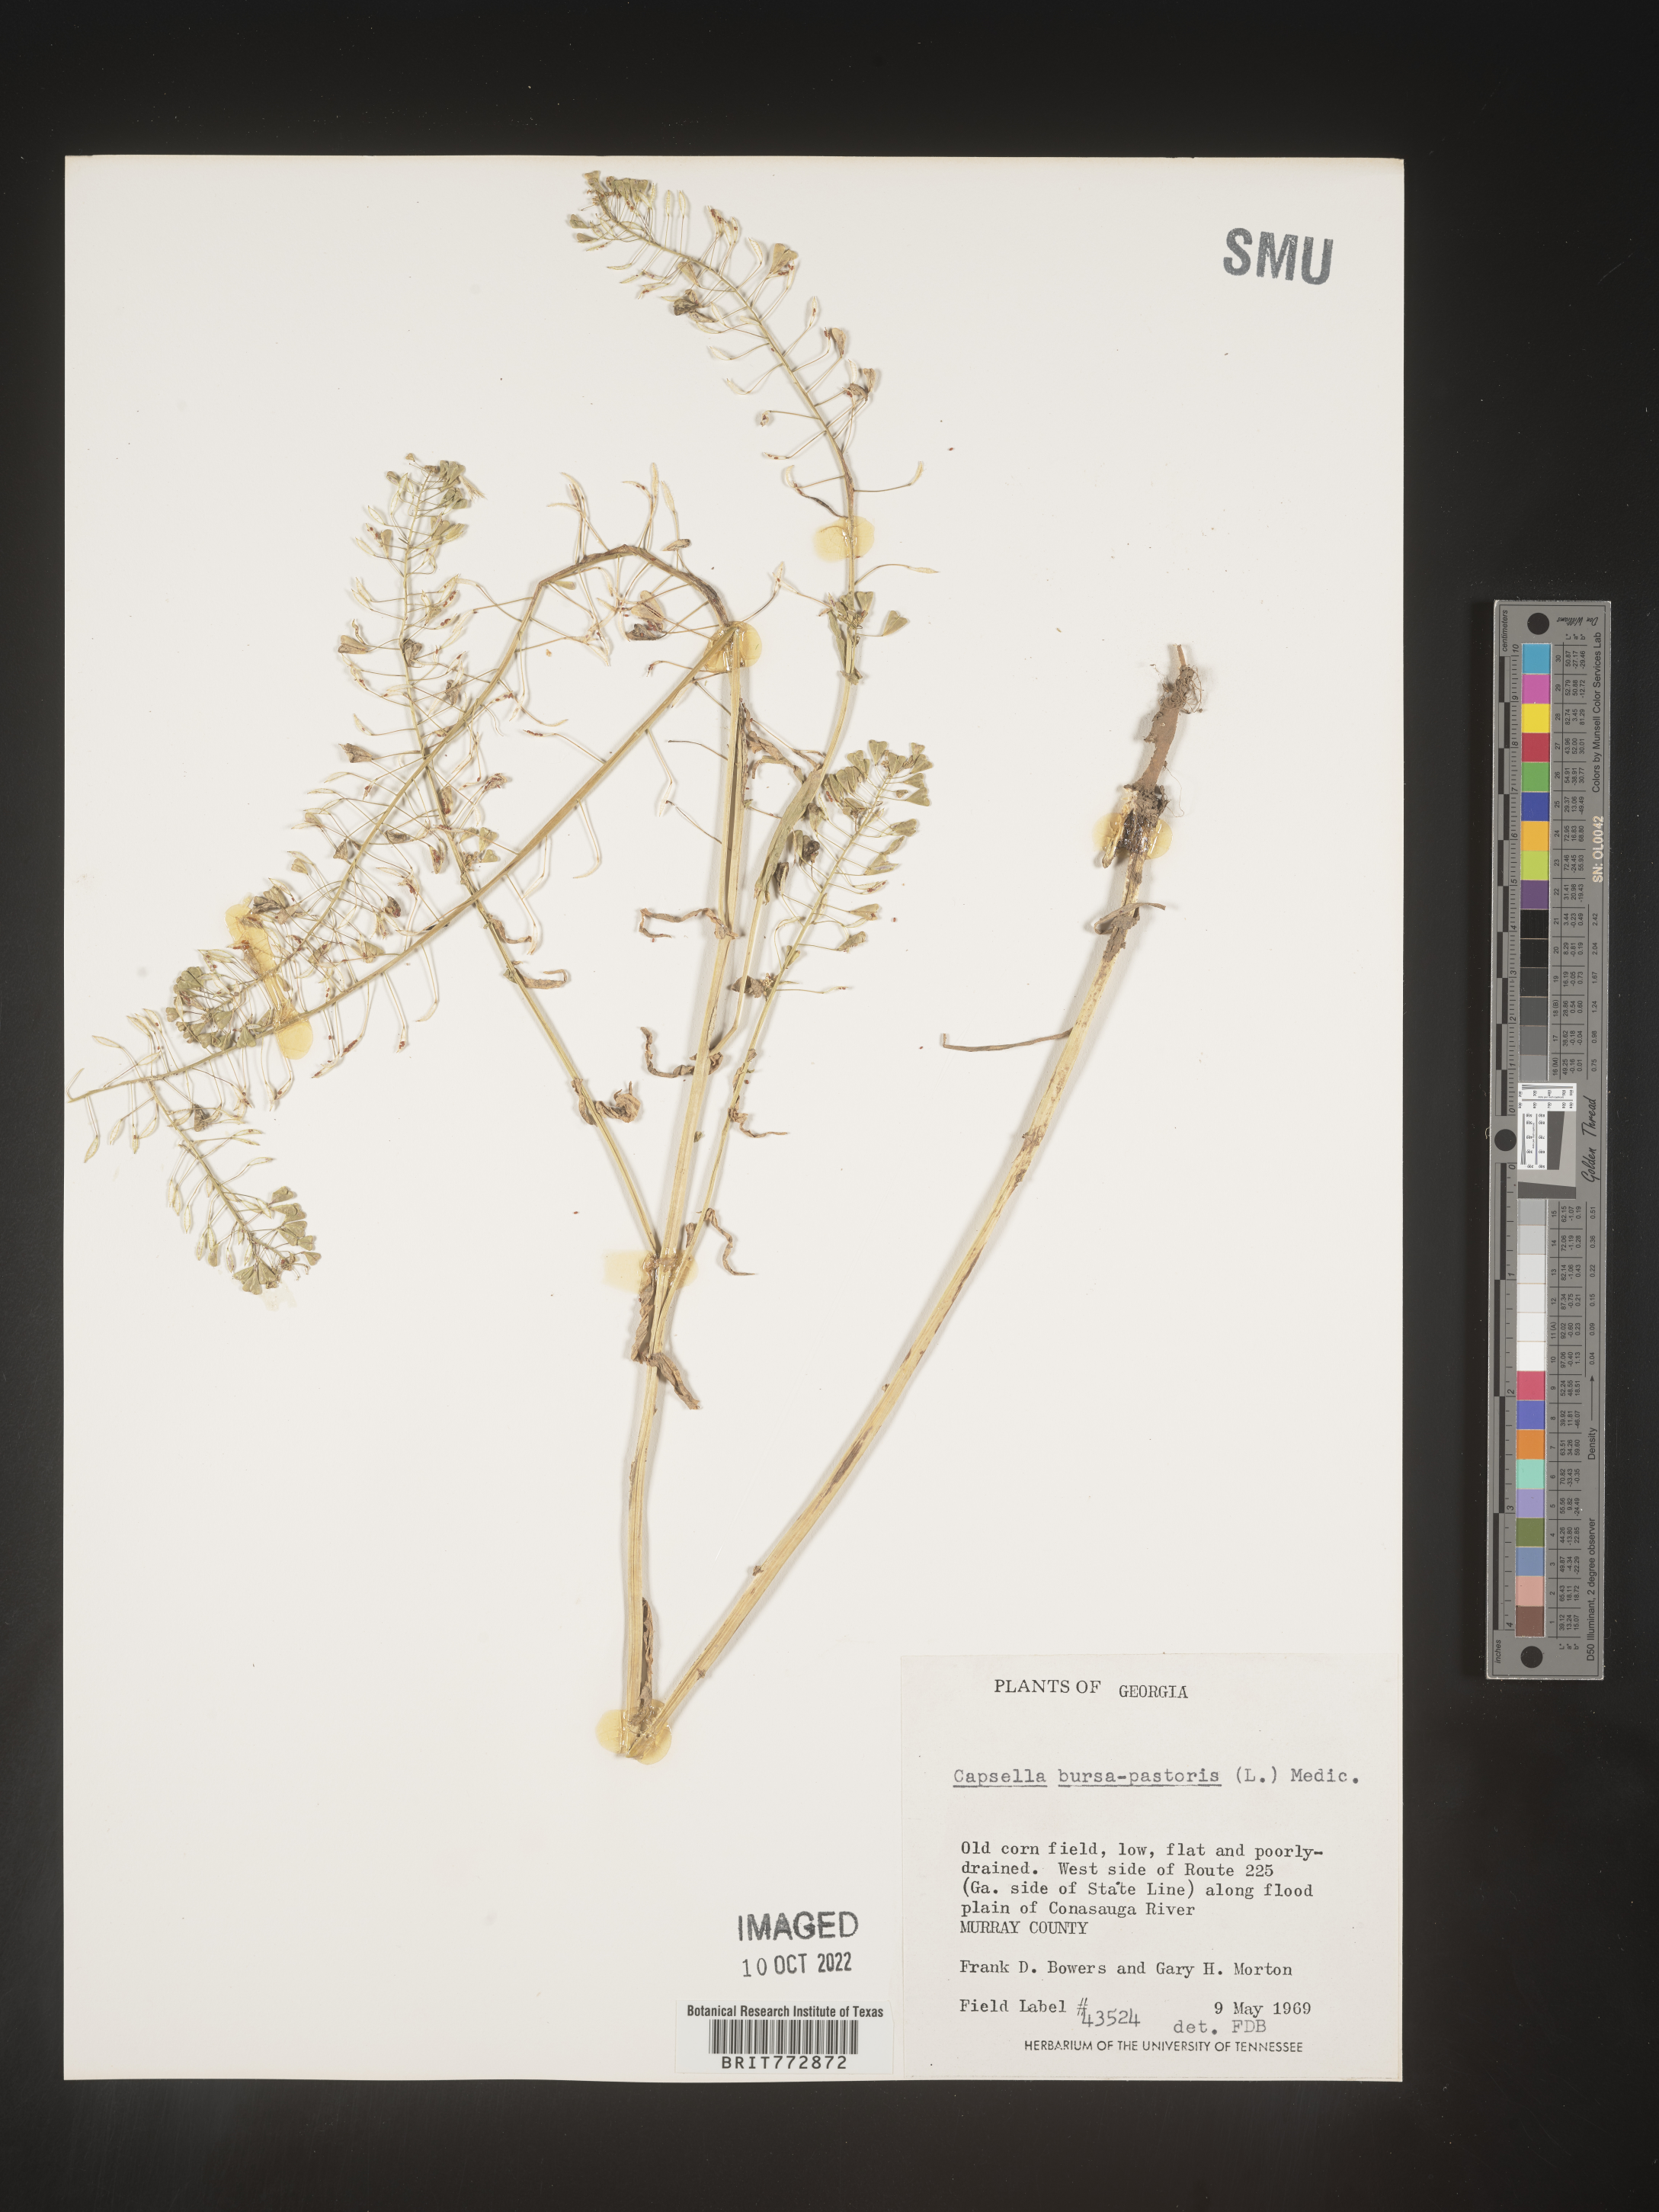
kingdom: Plantae
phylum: Tracheophyta
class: Magnoliopsida
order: Brassicales
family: Brassicaceae
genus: Capsella
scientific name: Capsella bursa-pastoris
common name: Shepherd's purse
